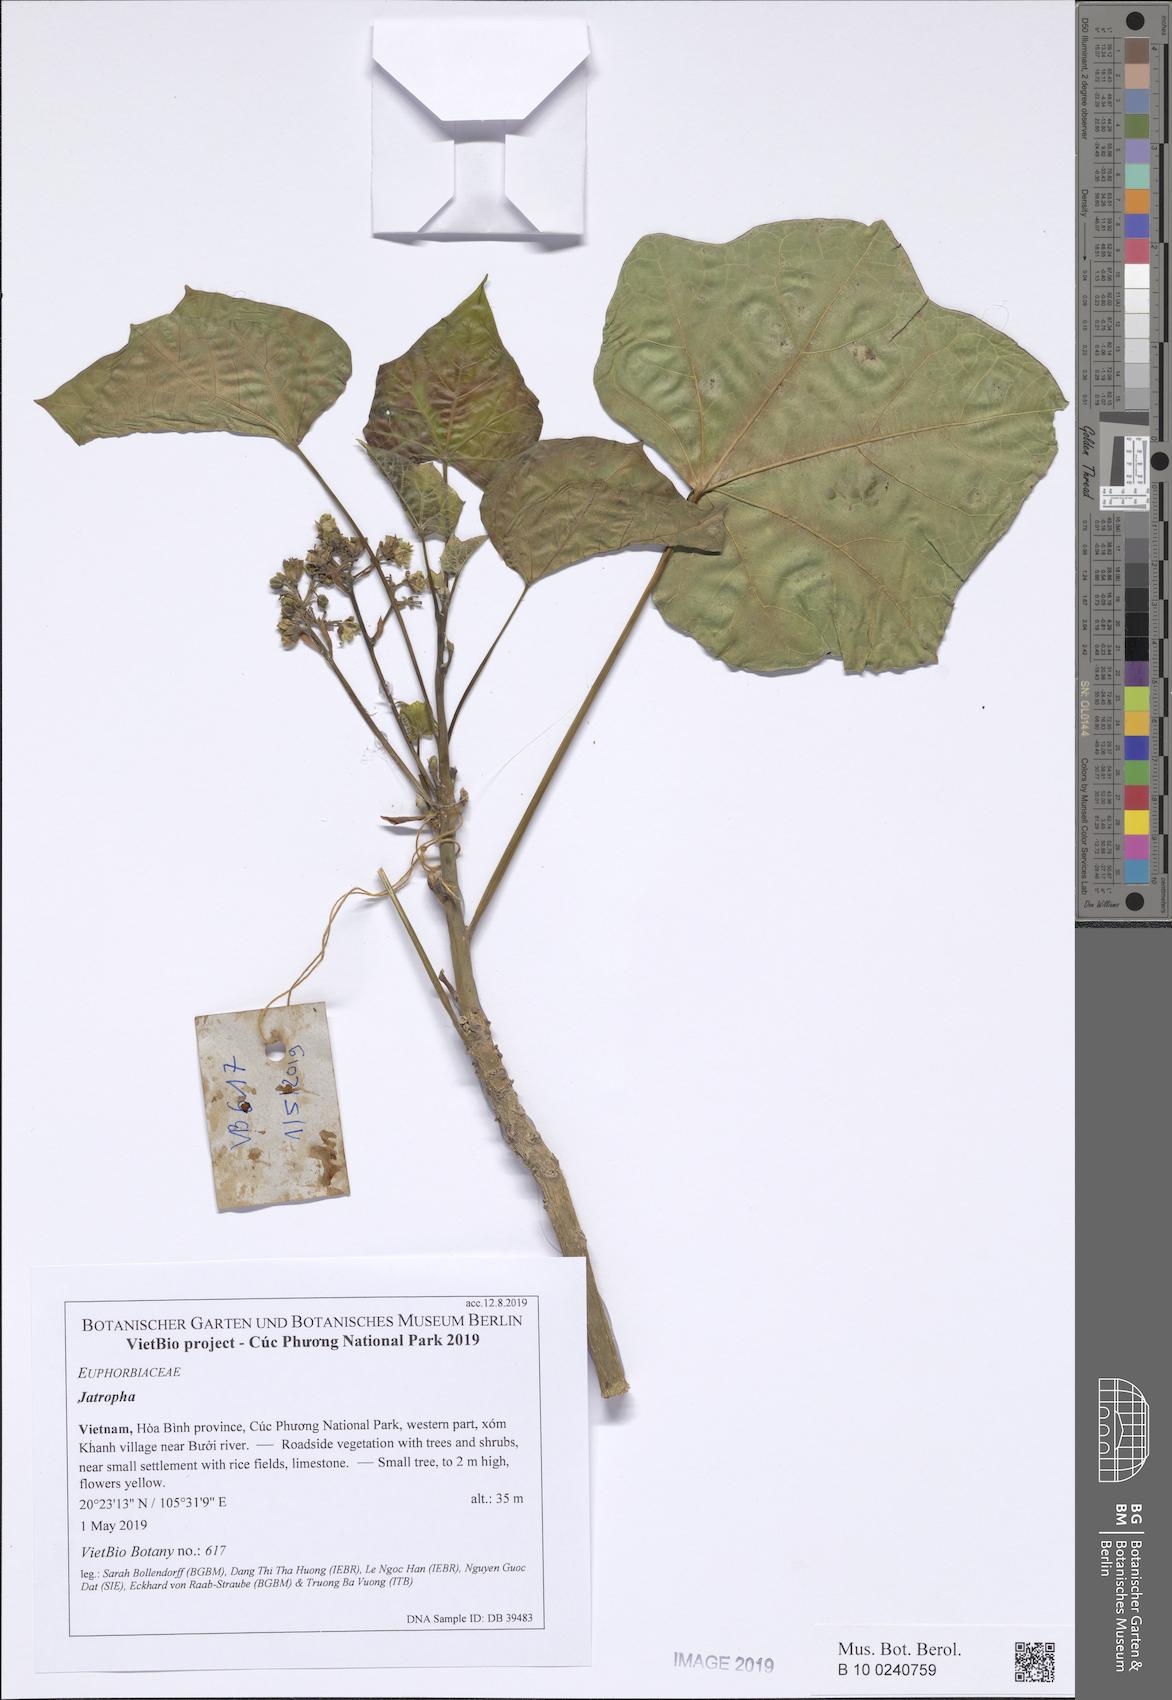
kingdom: Plantae
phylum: Tracheophyta
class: Magnoliopsida
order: Malpighiales
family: Euphorbiaceae
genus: Jatropha
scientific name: Jatropha curcas
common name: Barbados nut
